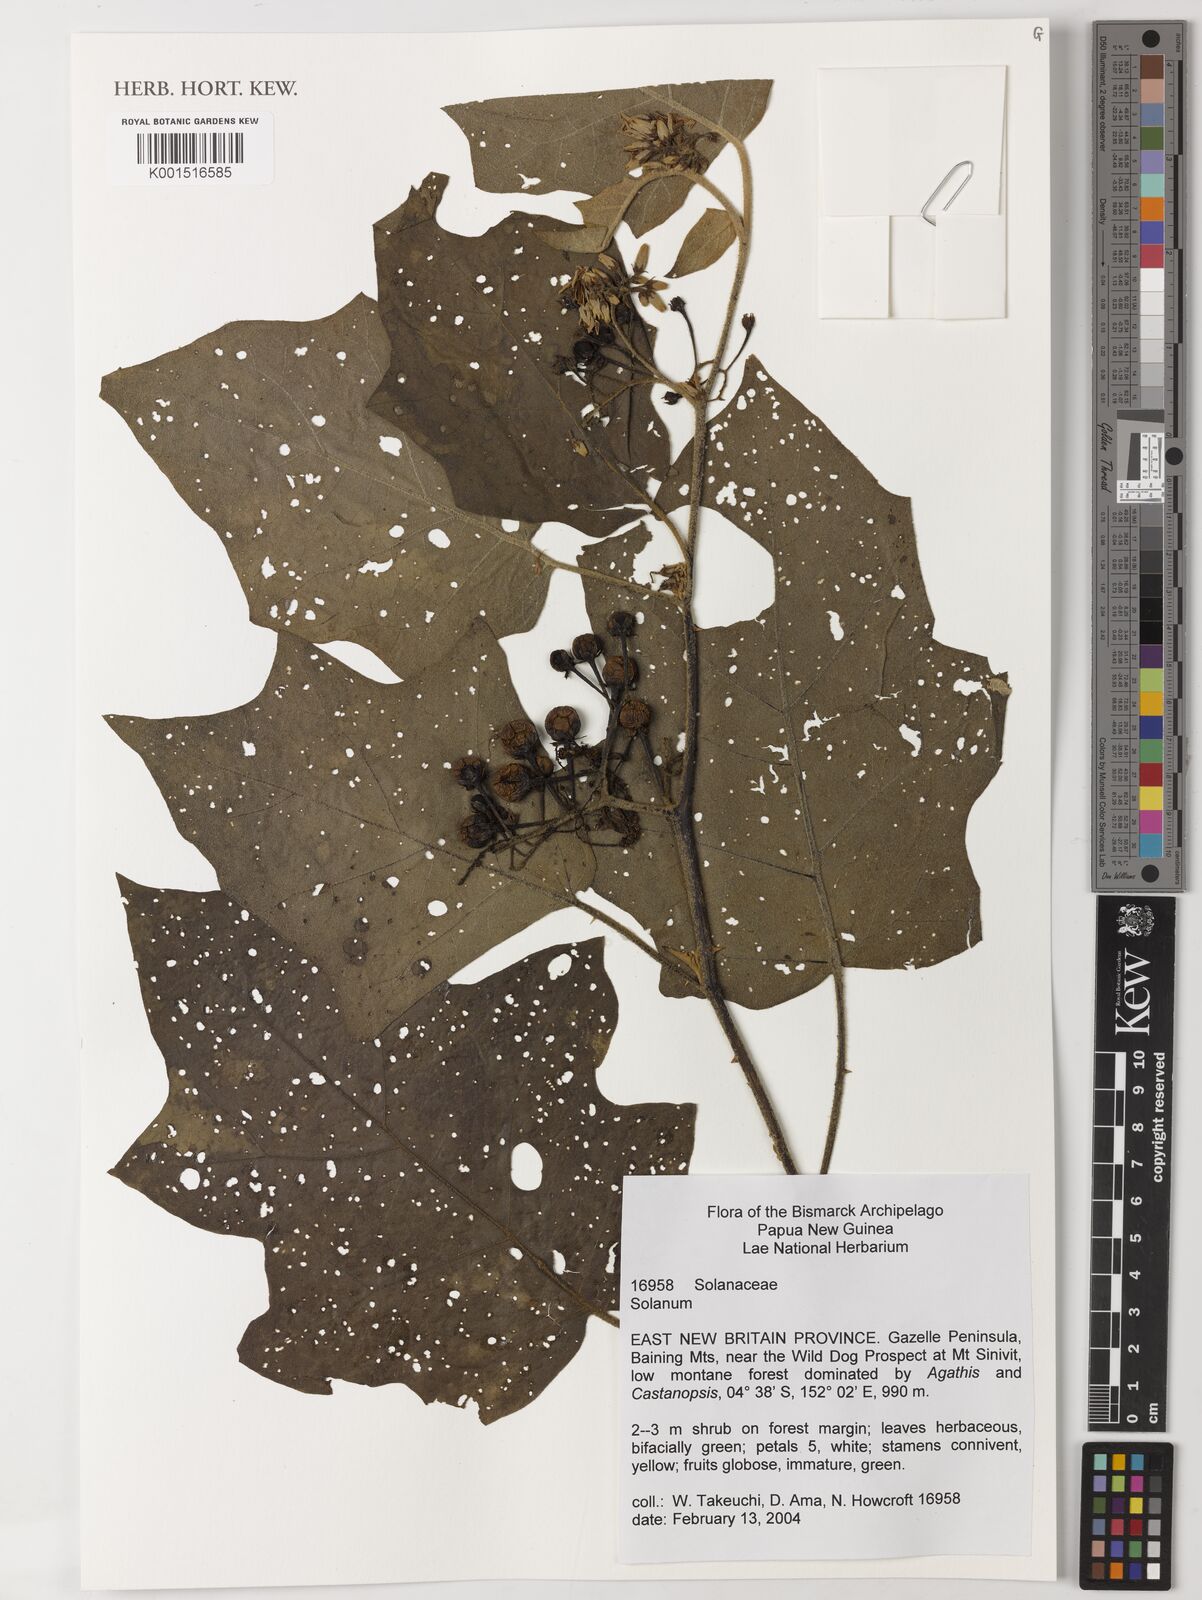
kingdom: Plantae
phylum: Tracheophyta
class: Magnoliopsida
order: Solanales
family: Solanaceae
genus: Solanum
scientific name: Solanum
